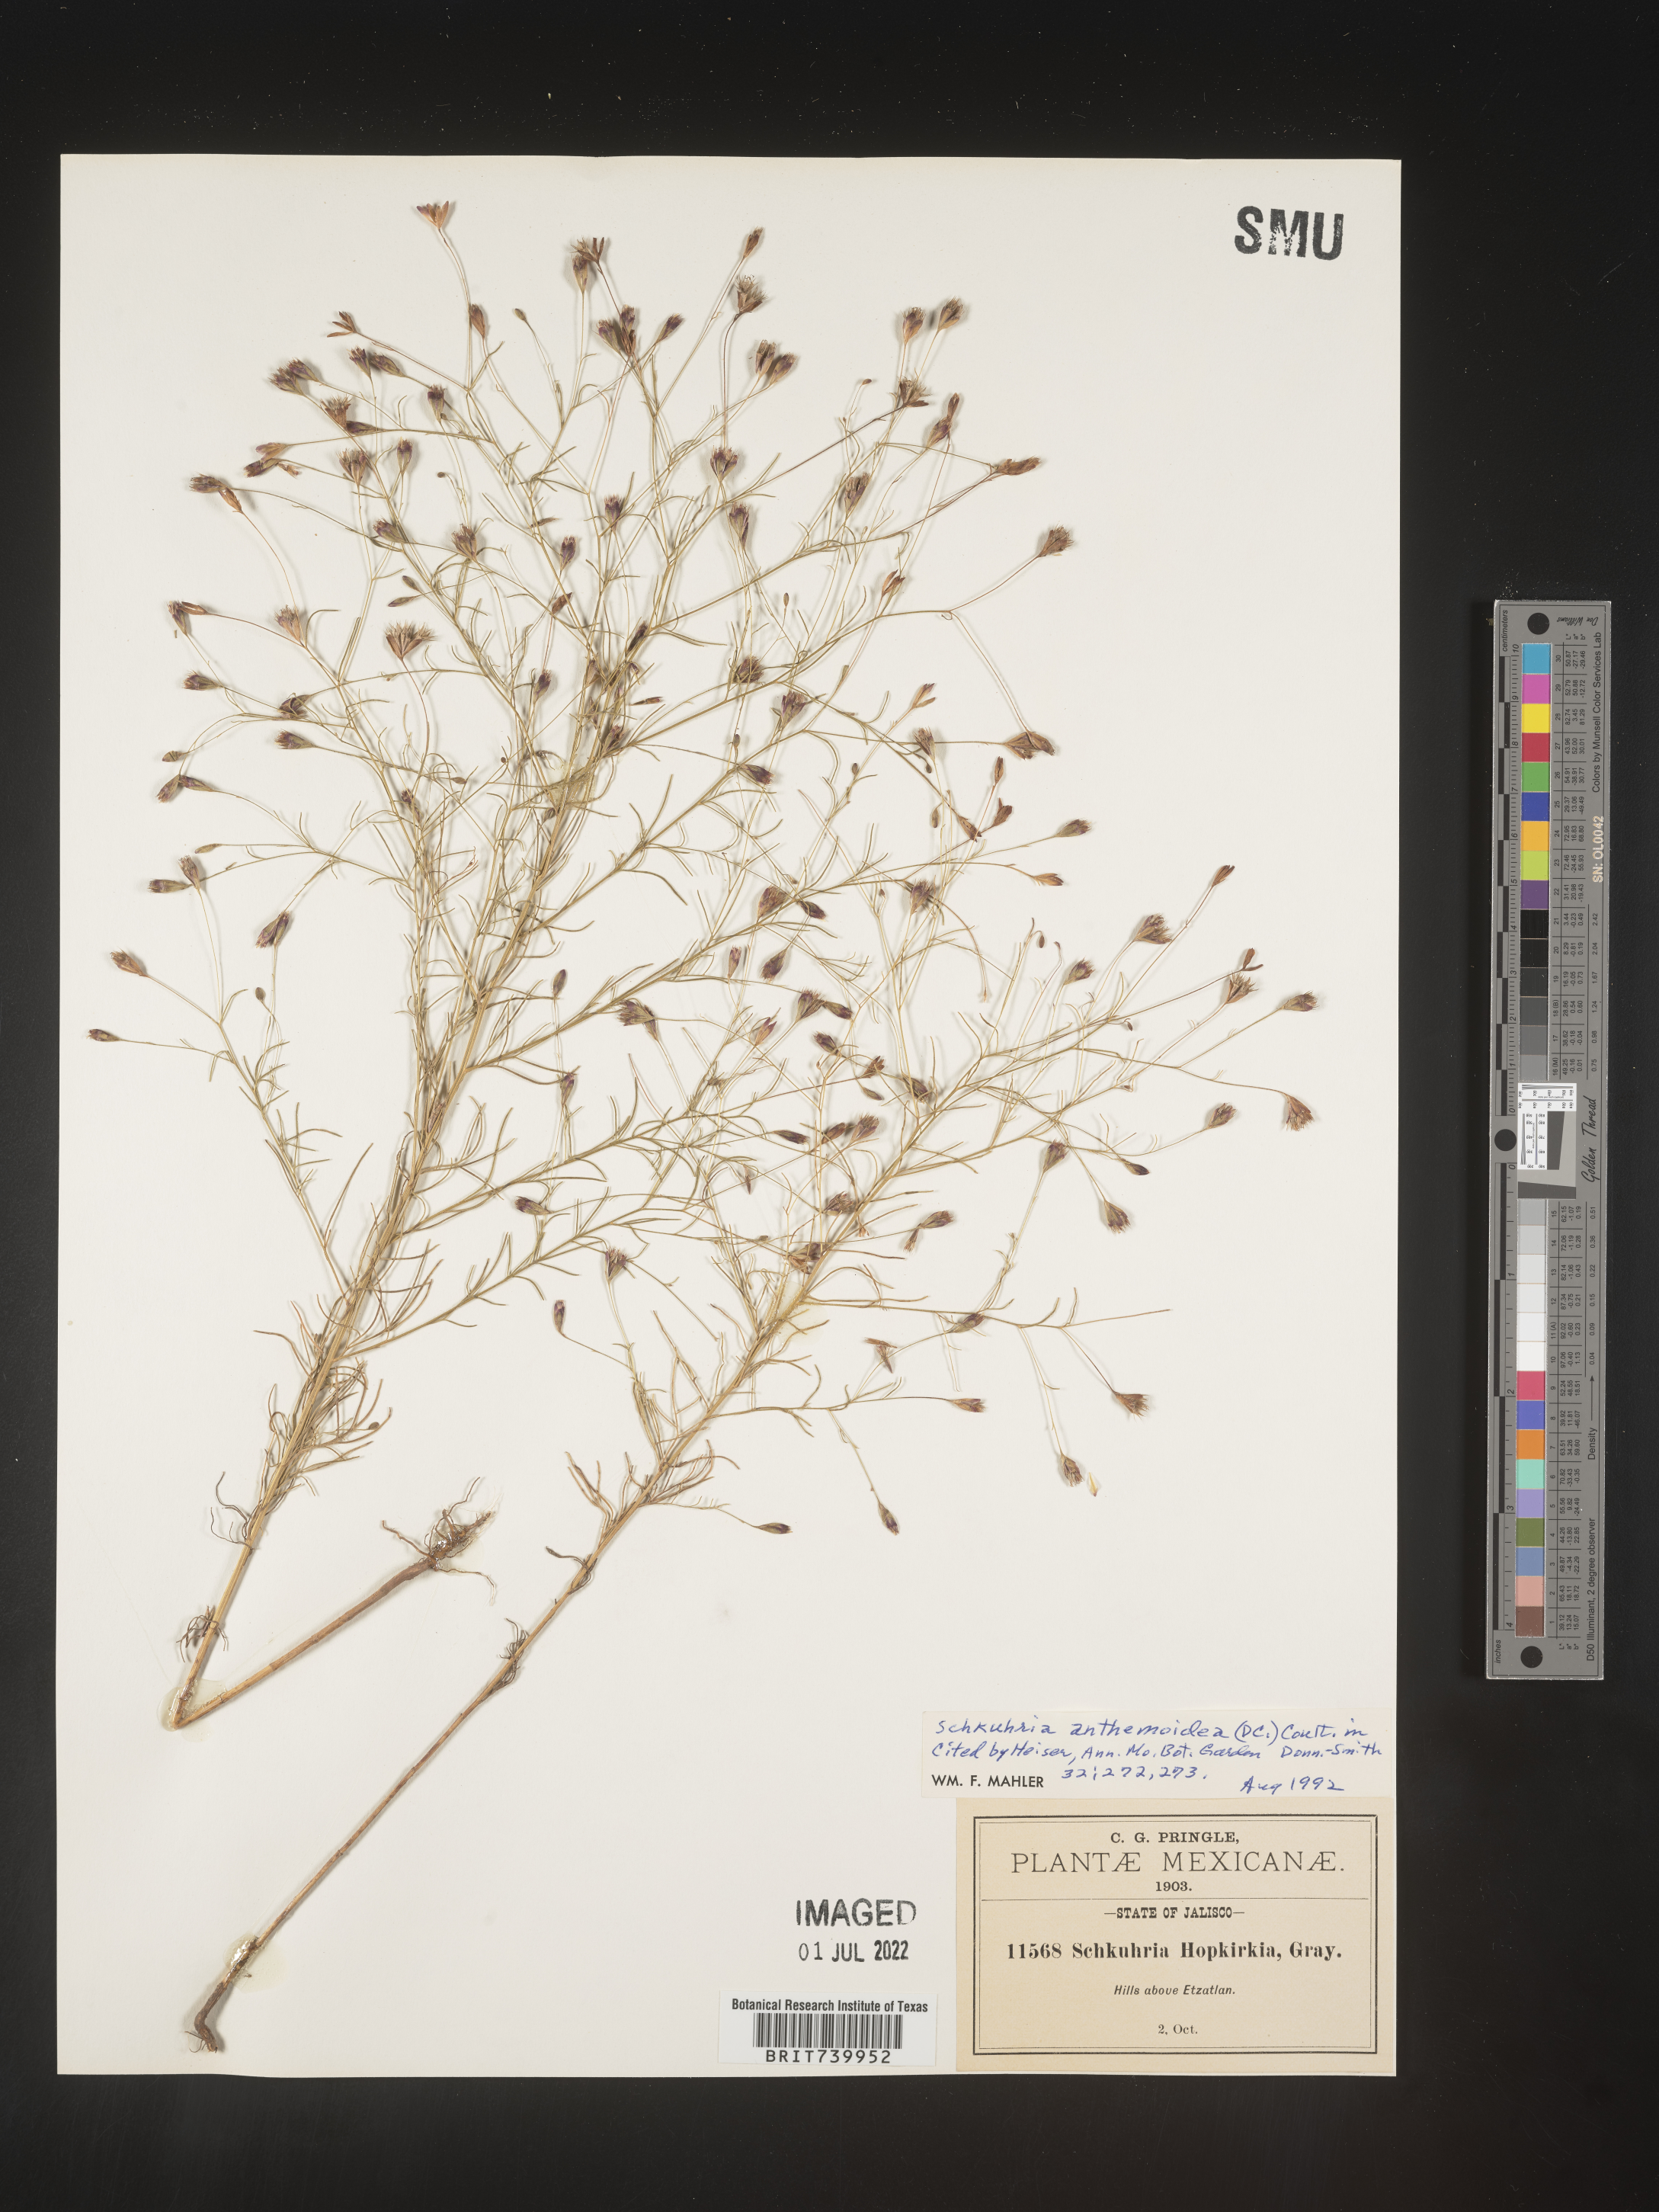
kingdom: Plantae
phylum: Tracheophyta
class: Magnoliopsida
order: Asterales
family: Asteraceae
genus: Schkuhria
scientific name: Schkuhria
